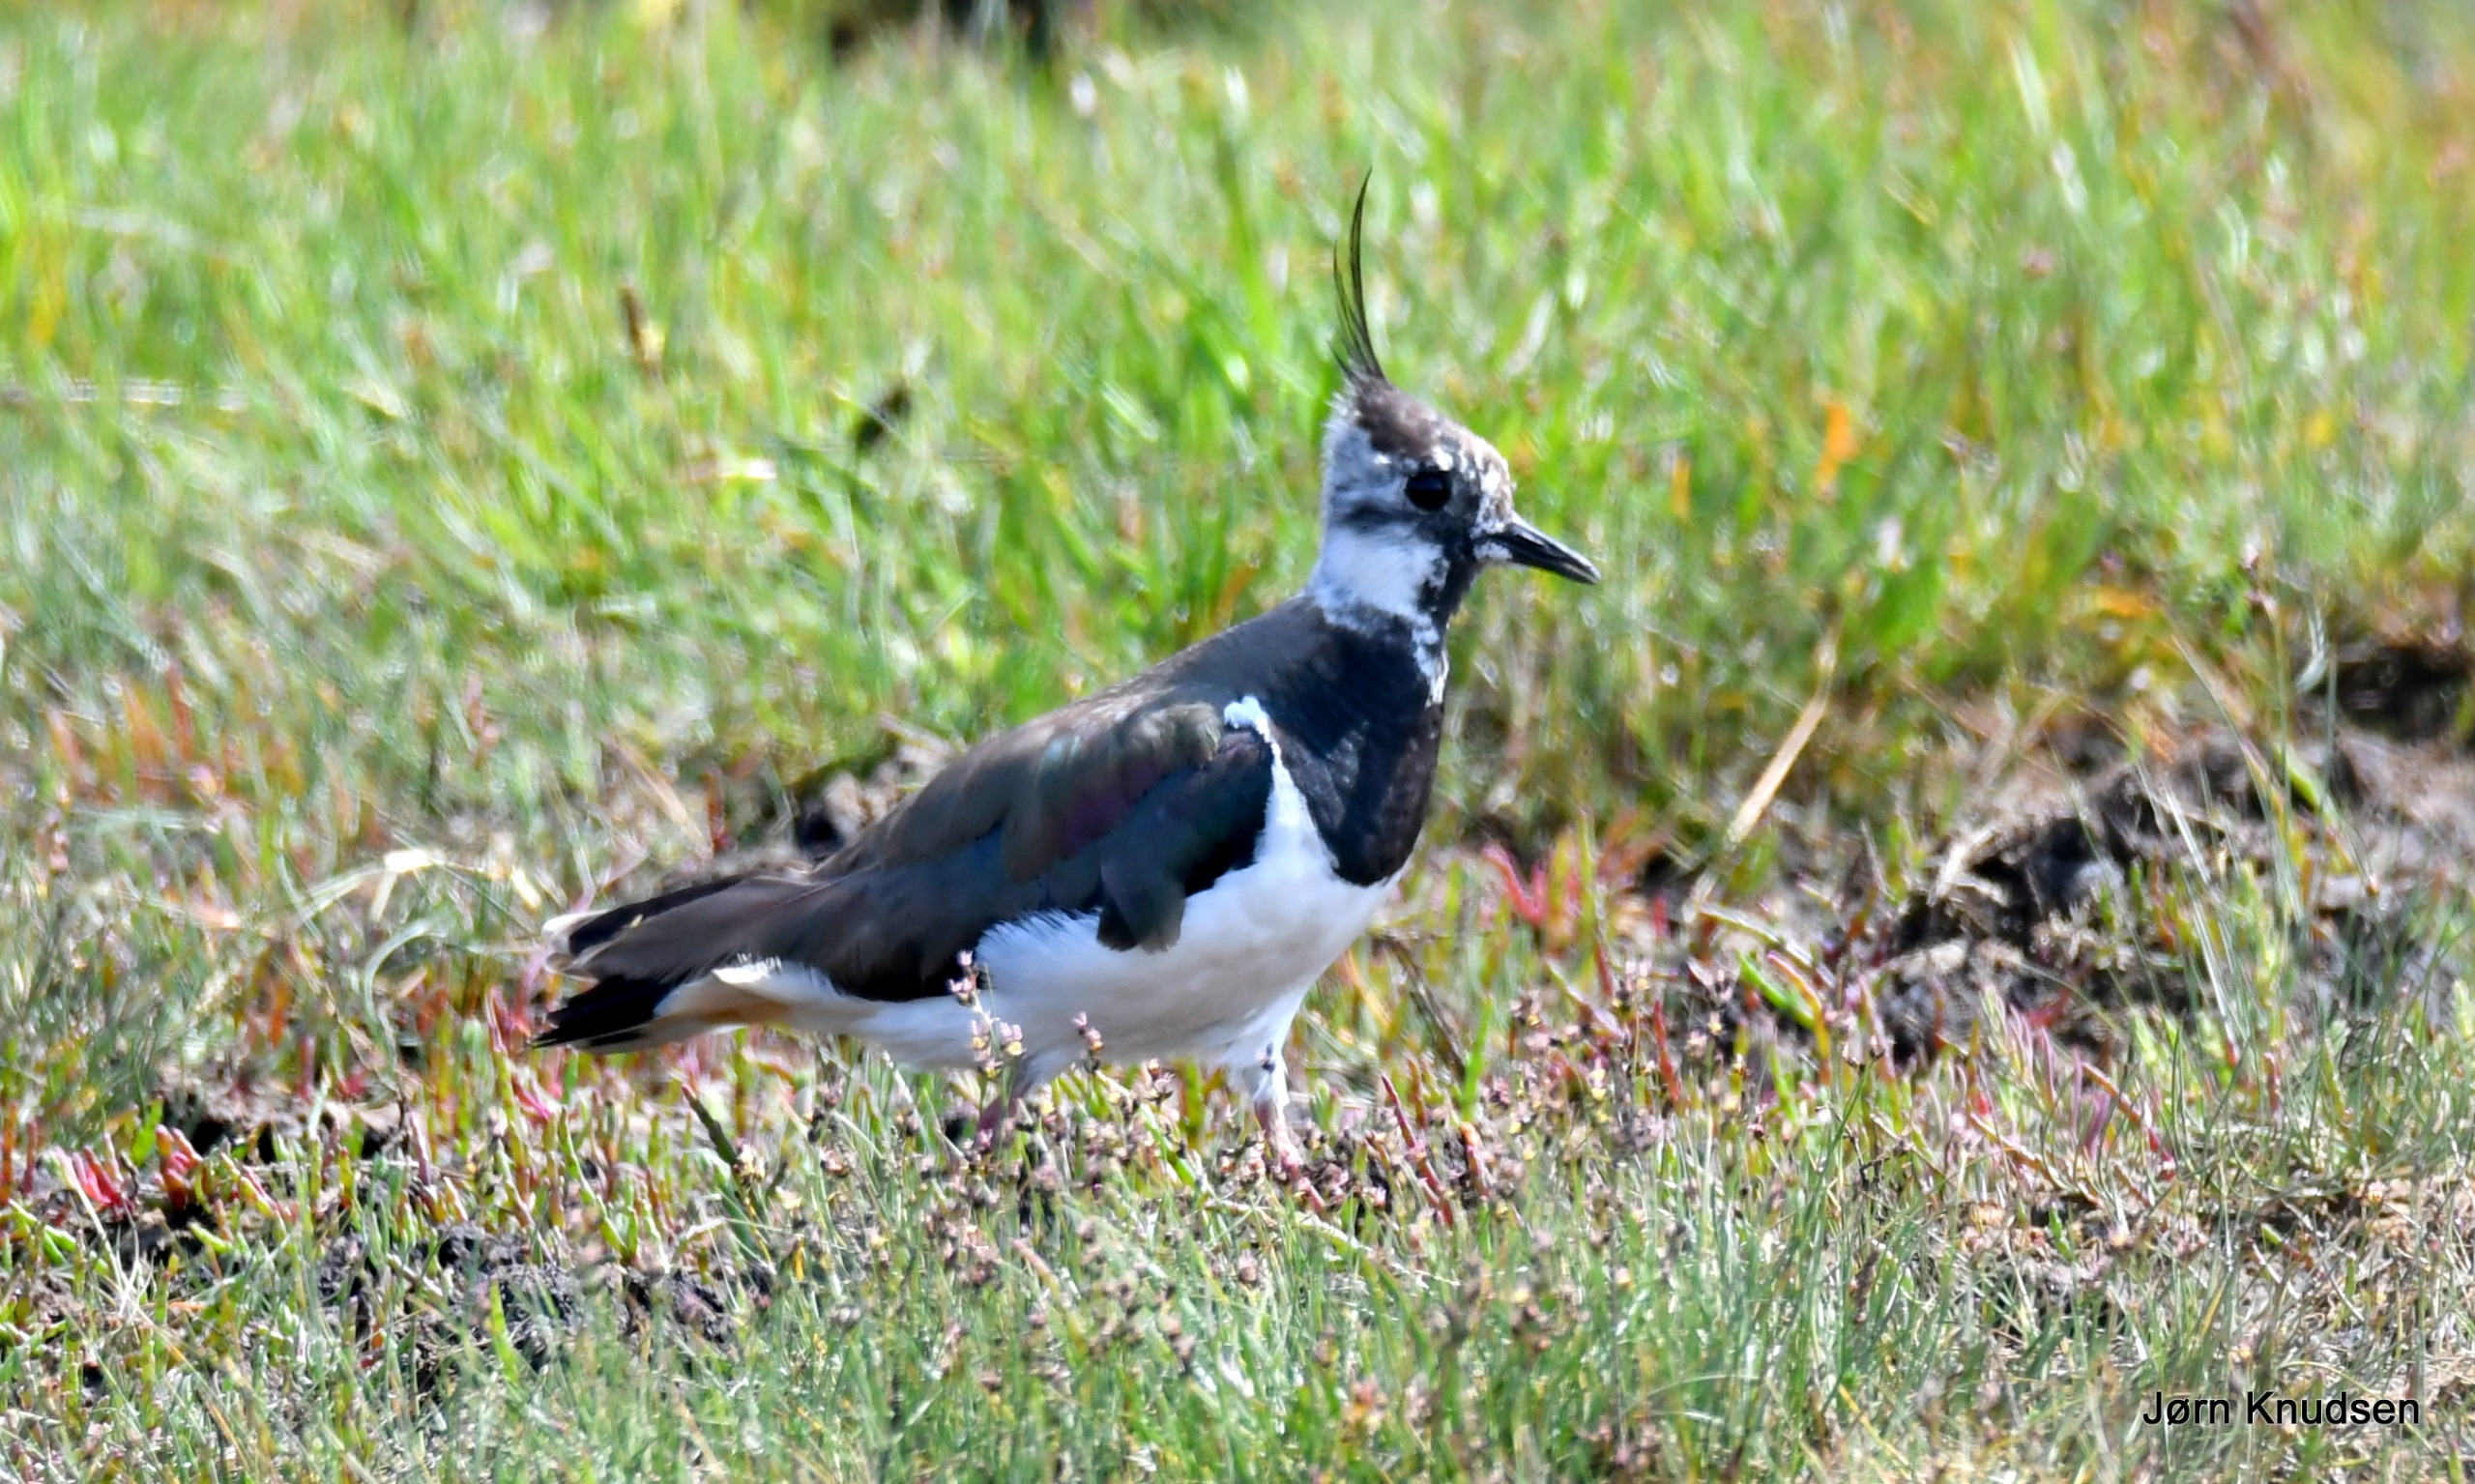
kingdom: Animalia
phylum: Chordata
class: Aves
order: Charadriiformes
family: Charadriidae
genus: Vanellus
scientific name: Vanellus vanellus
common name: Vibe
